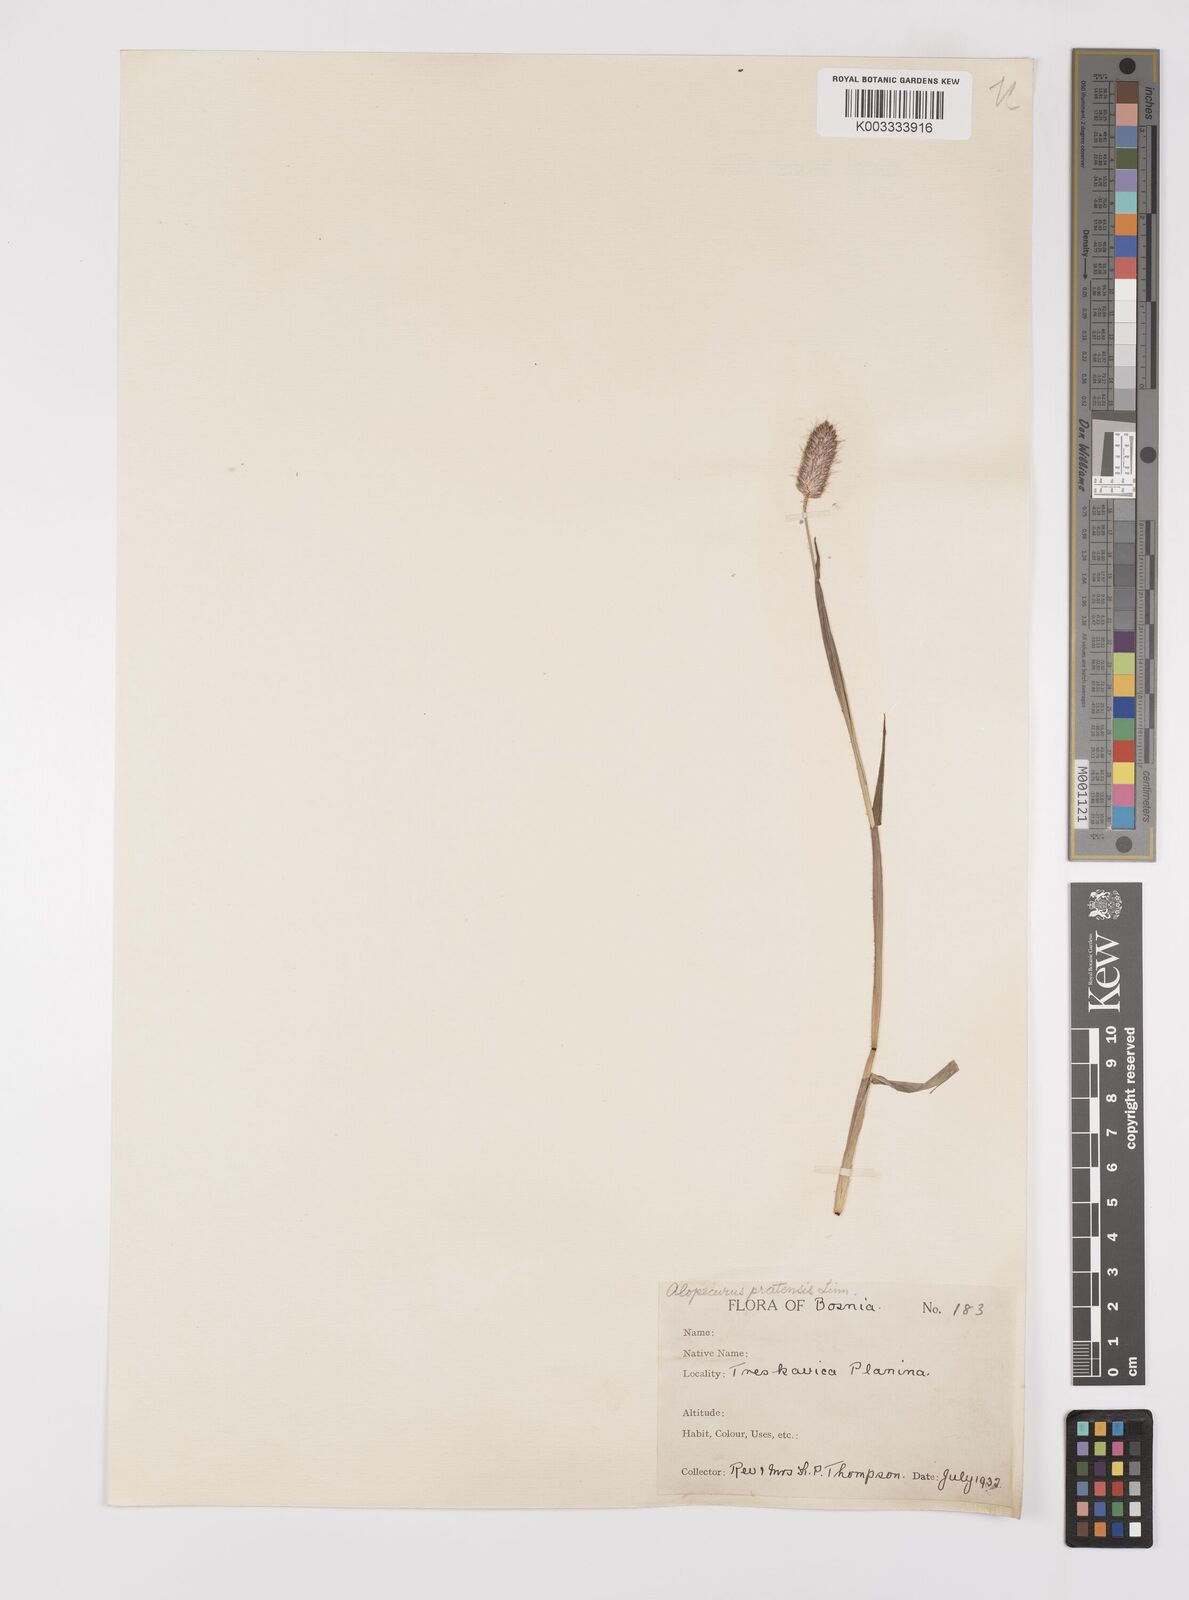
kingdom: Plantae
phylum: Tracheophyta
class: Liliopsida
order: Poales
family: Poaceae
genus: Alopecurus
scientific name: Alopecurus pratensis
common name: Meadow foxtail
